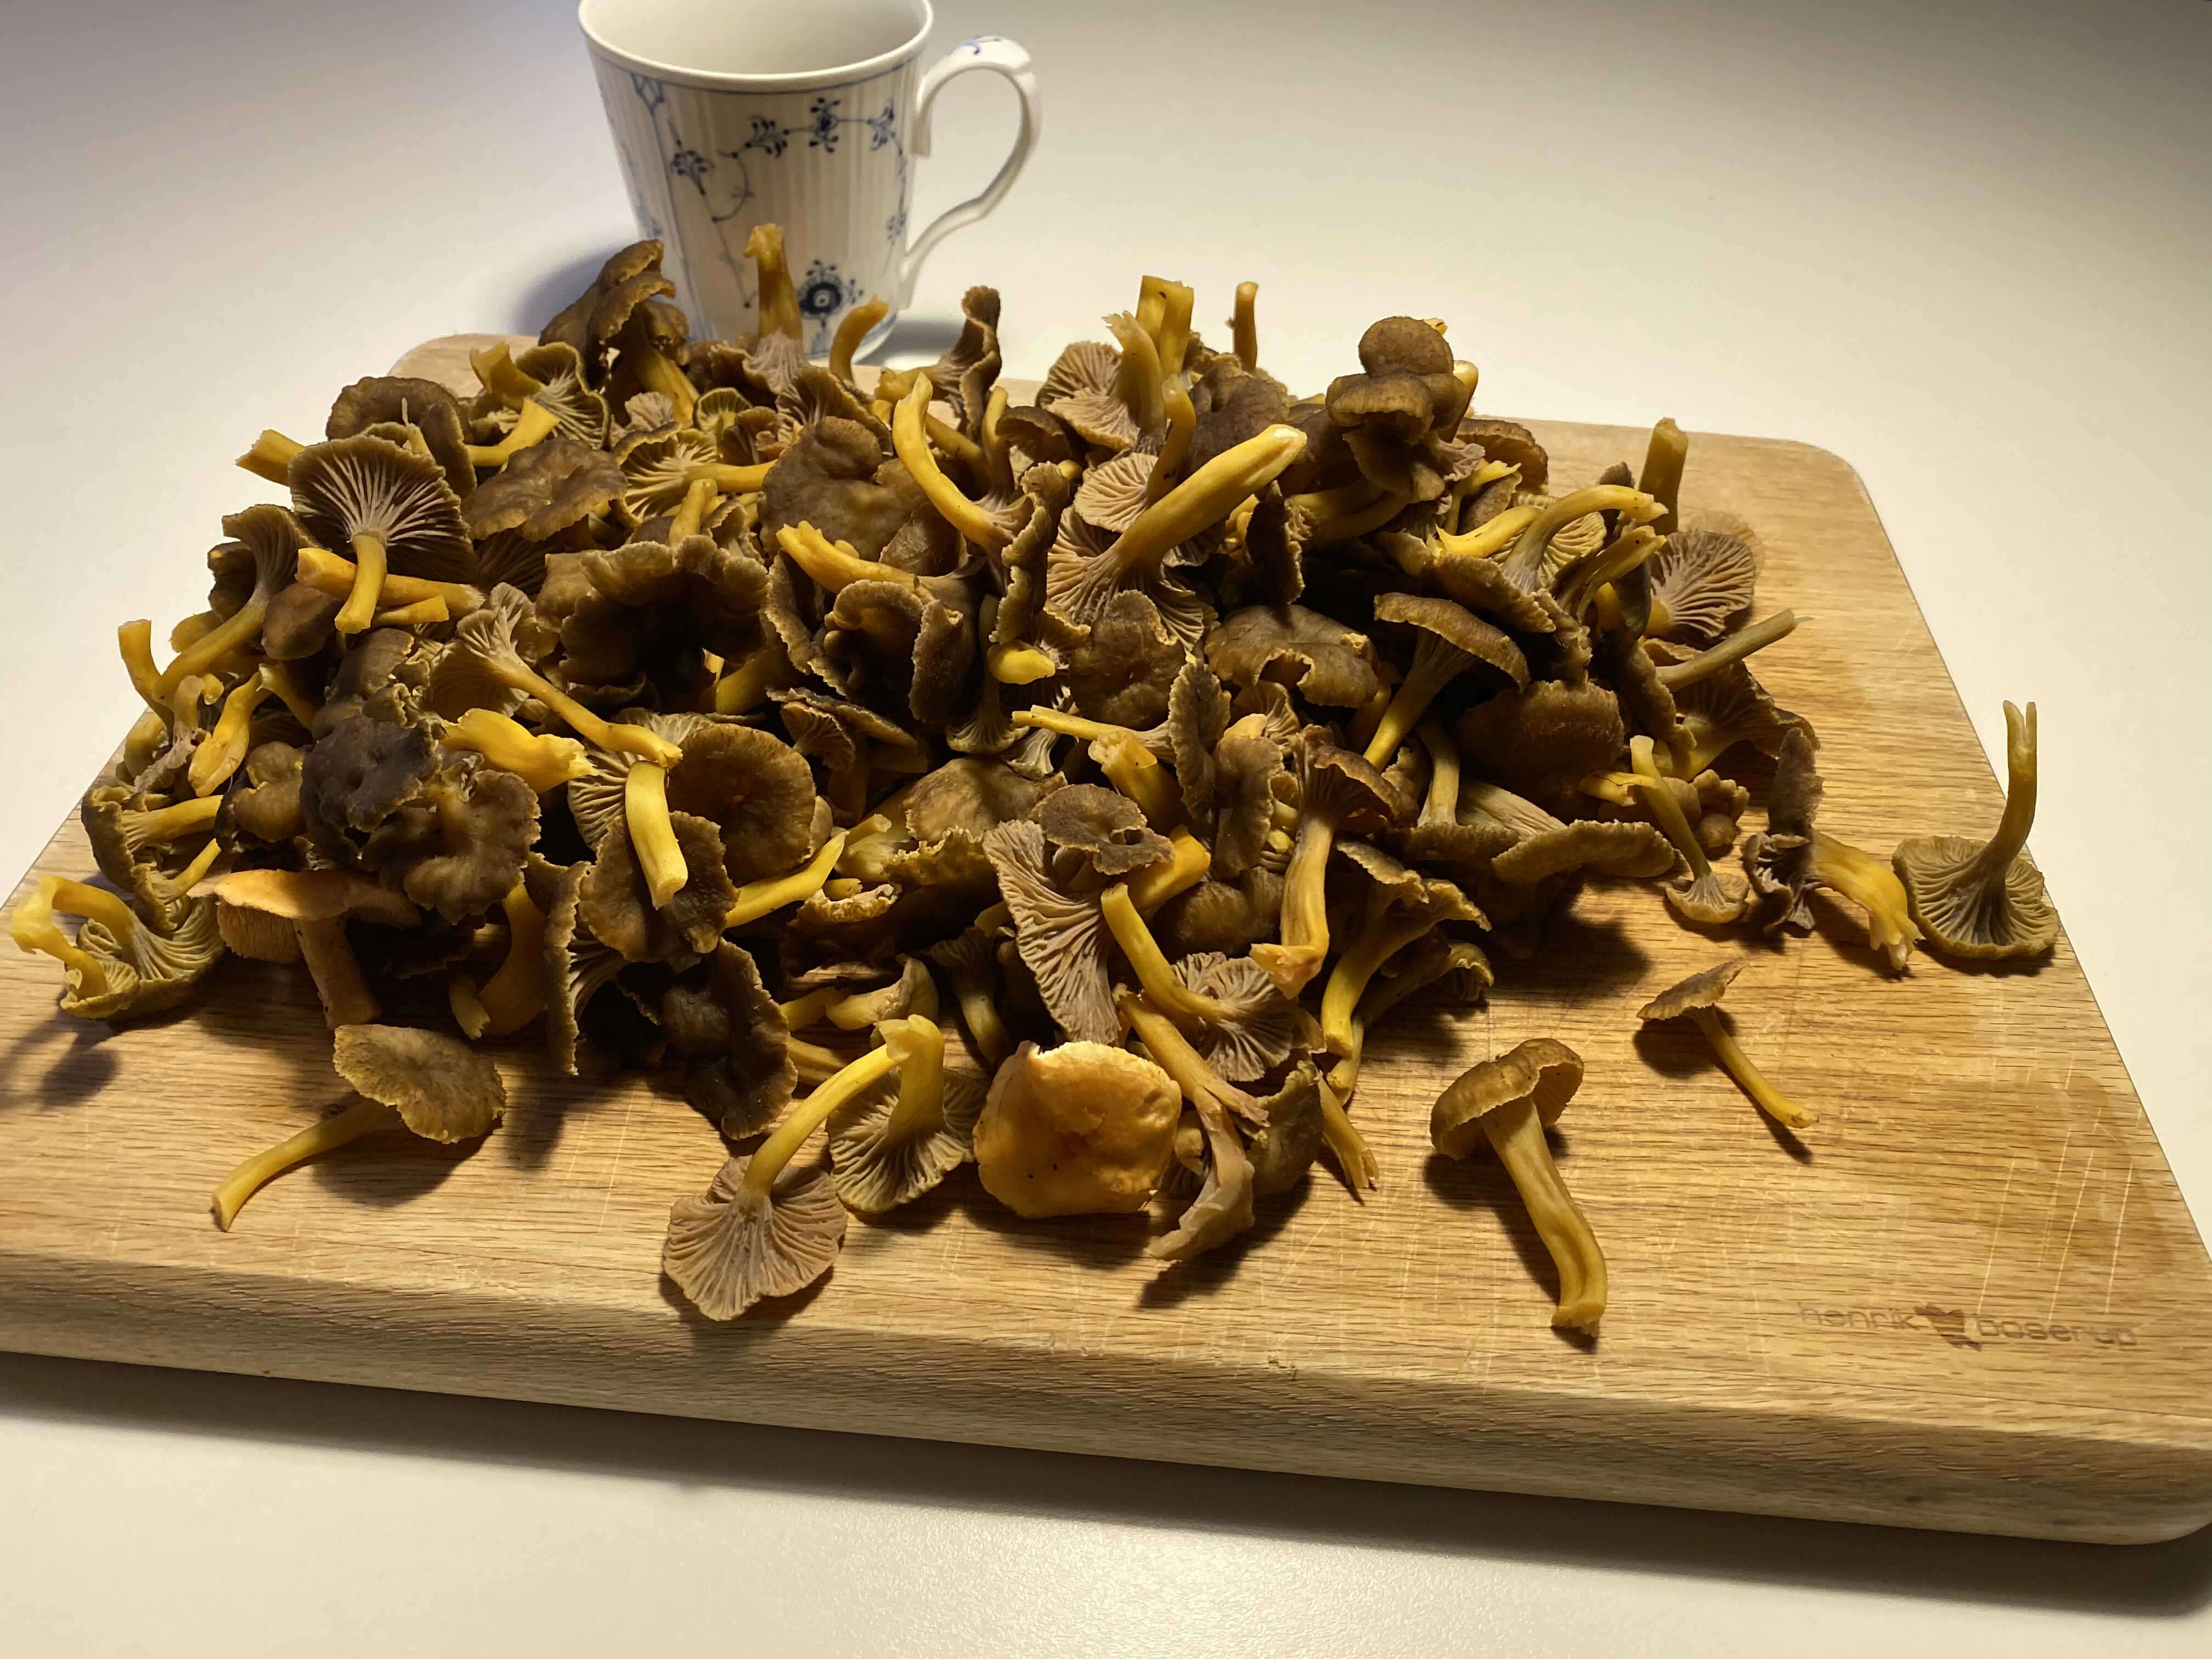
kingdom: Fungi
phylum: Basidiomycota
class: Agaricomycetes
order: Cantharellales
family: Hydnaceae
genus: Craterellus
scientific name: Craterellus tubaeformis
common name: tragt-kantarel
